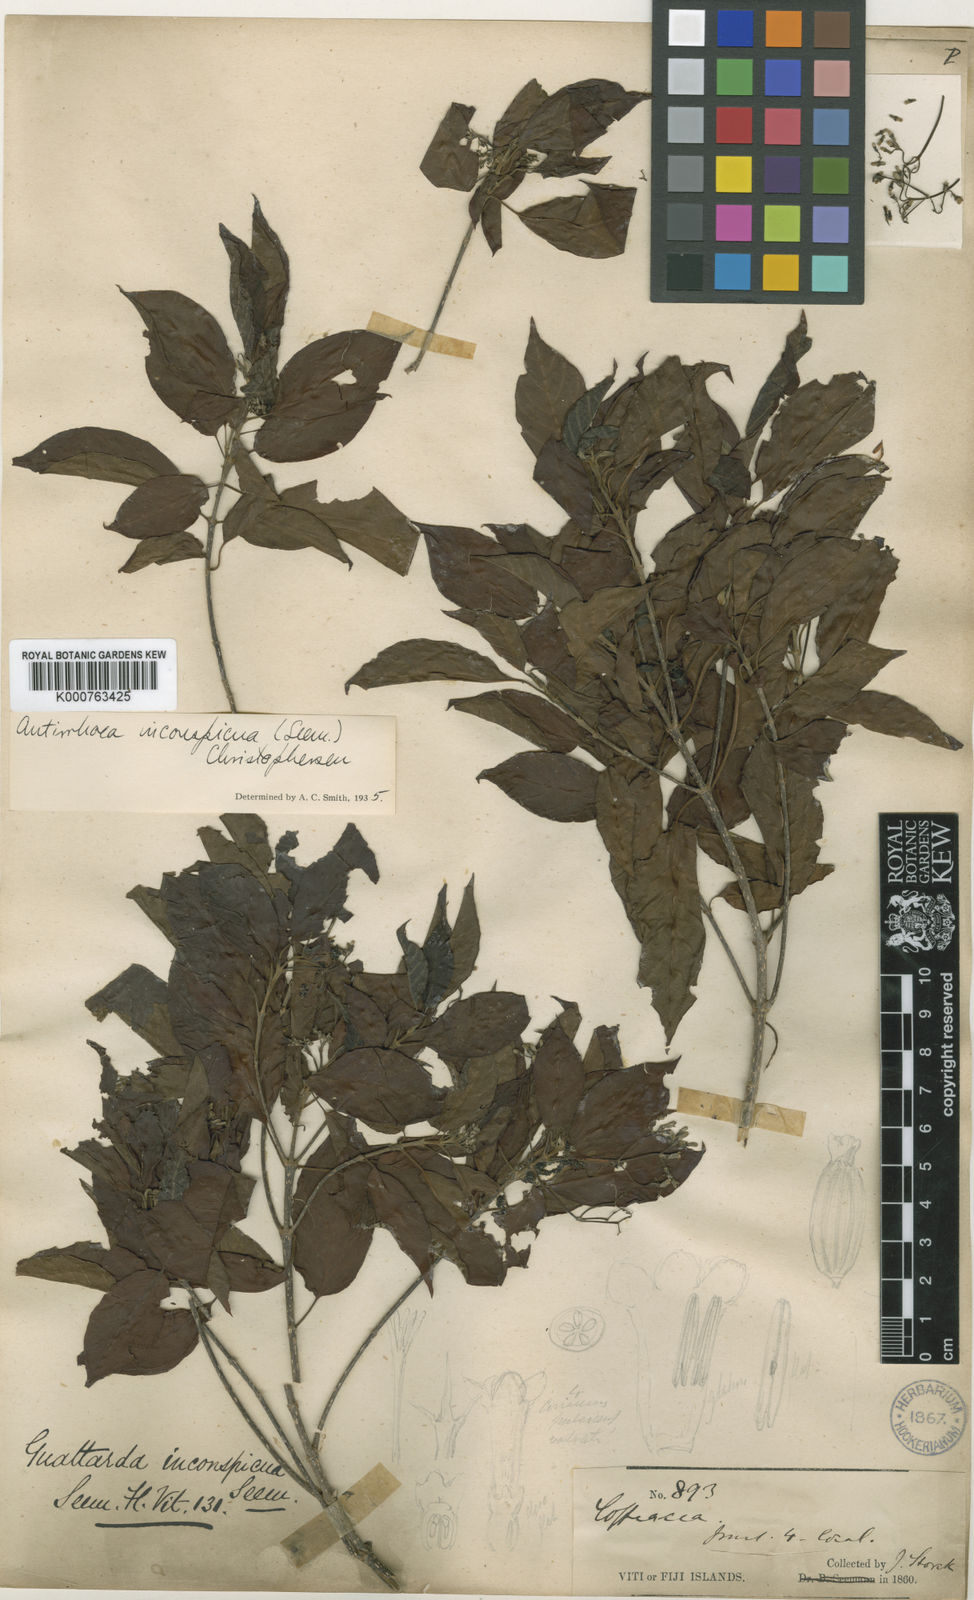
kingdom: Plantae
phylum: Tracheophyta
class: Magnoliopsida
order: Gentianales
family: Rubiaceae
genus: Guettardella
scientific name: Guettardella inconspicua
